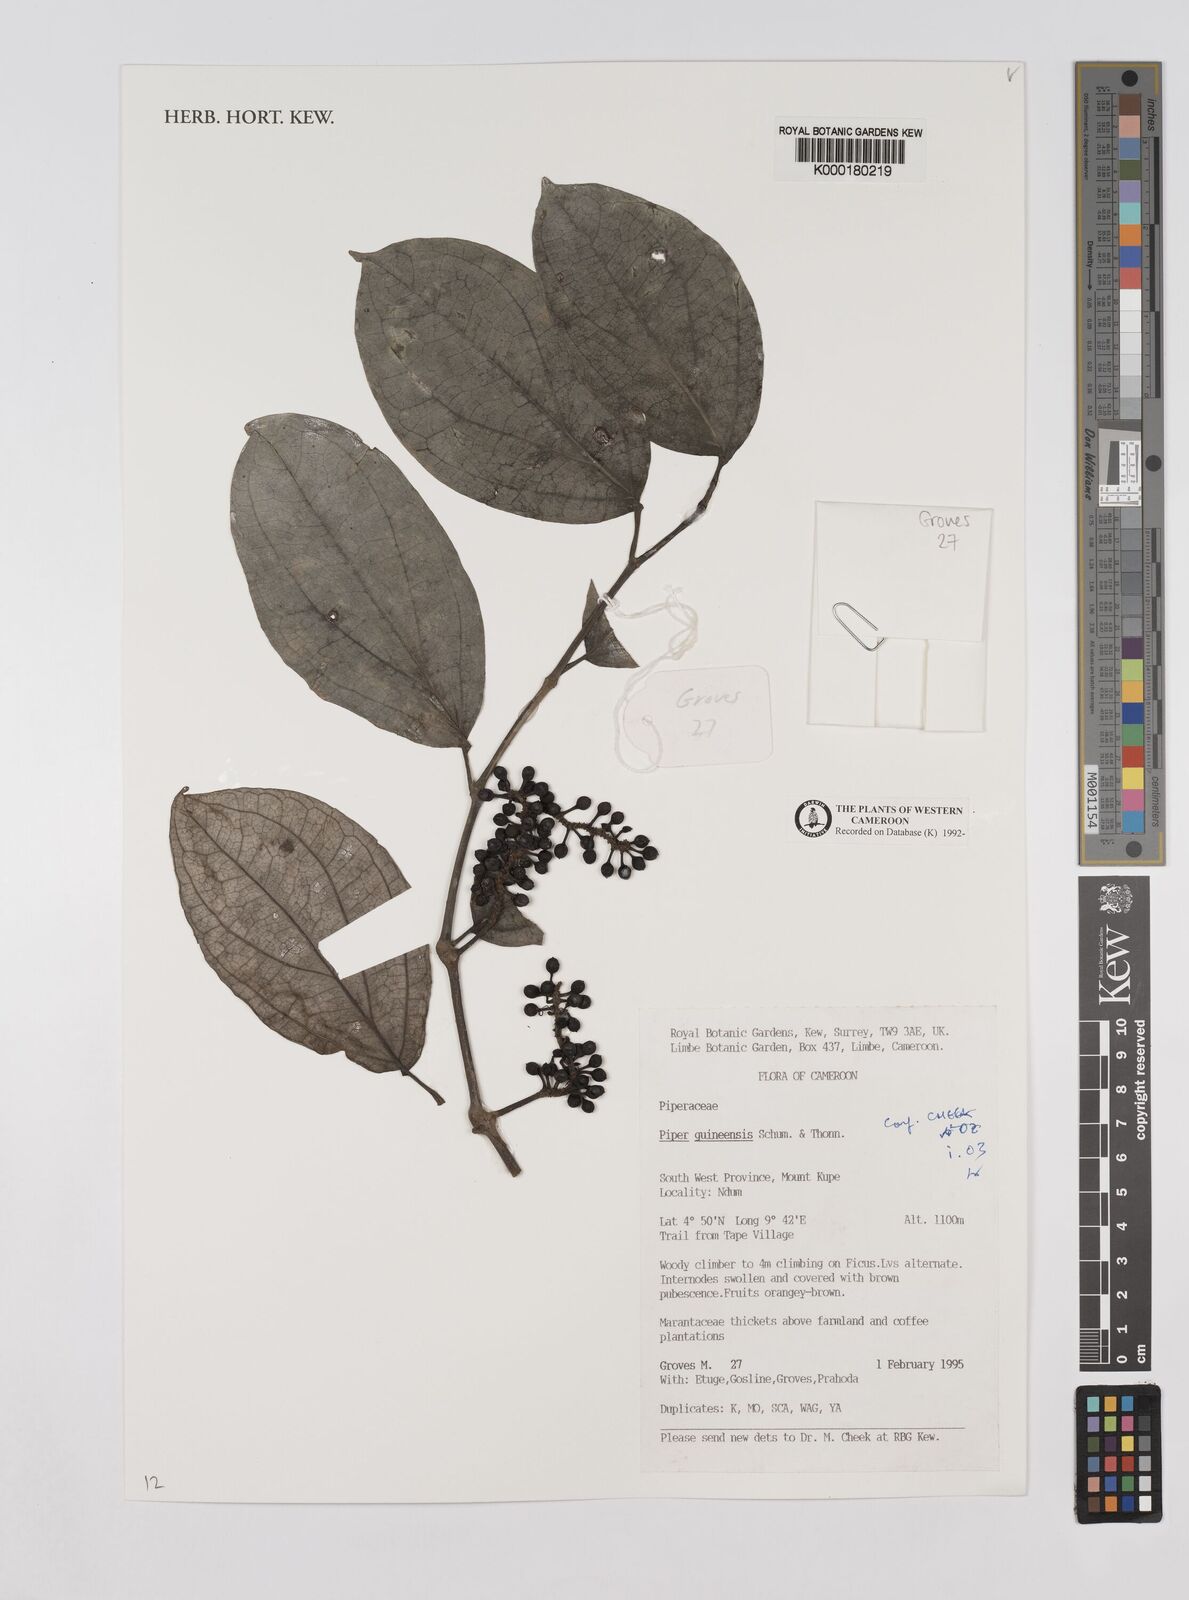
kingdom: Plantae
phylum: Tracheophyta
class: Magnoliopsida
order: Piperales
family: Piperaceae
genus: Piper
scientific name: Piper guineense
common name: Benin pepper
